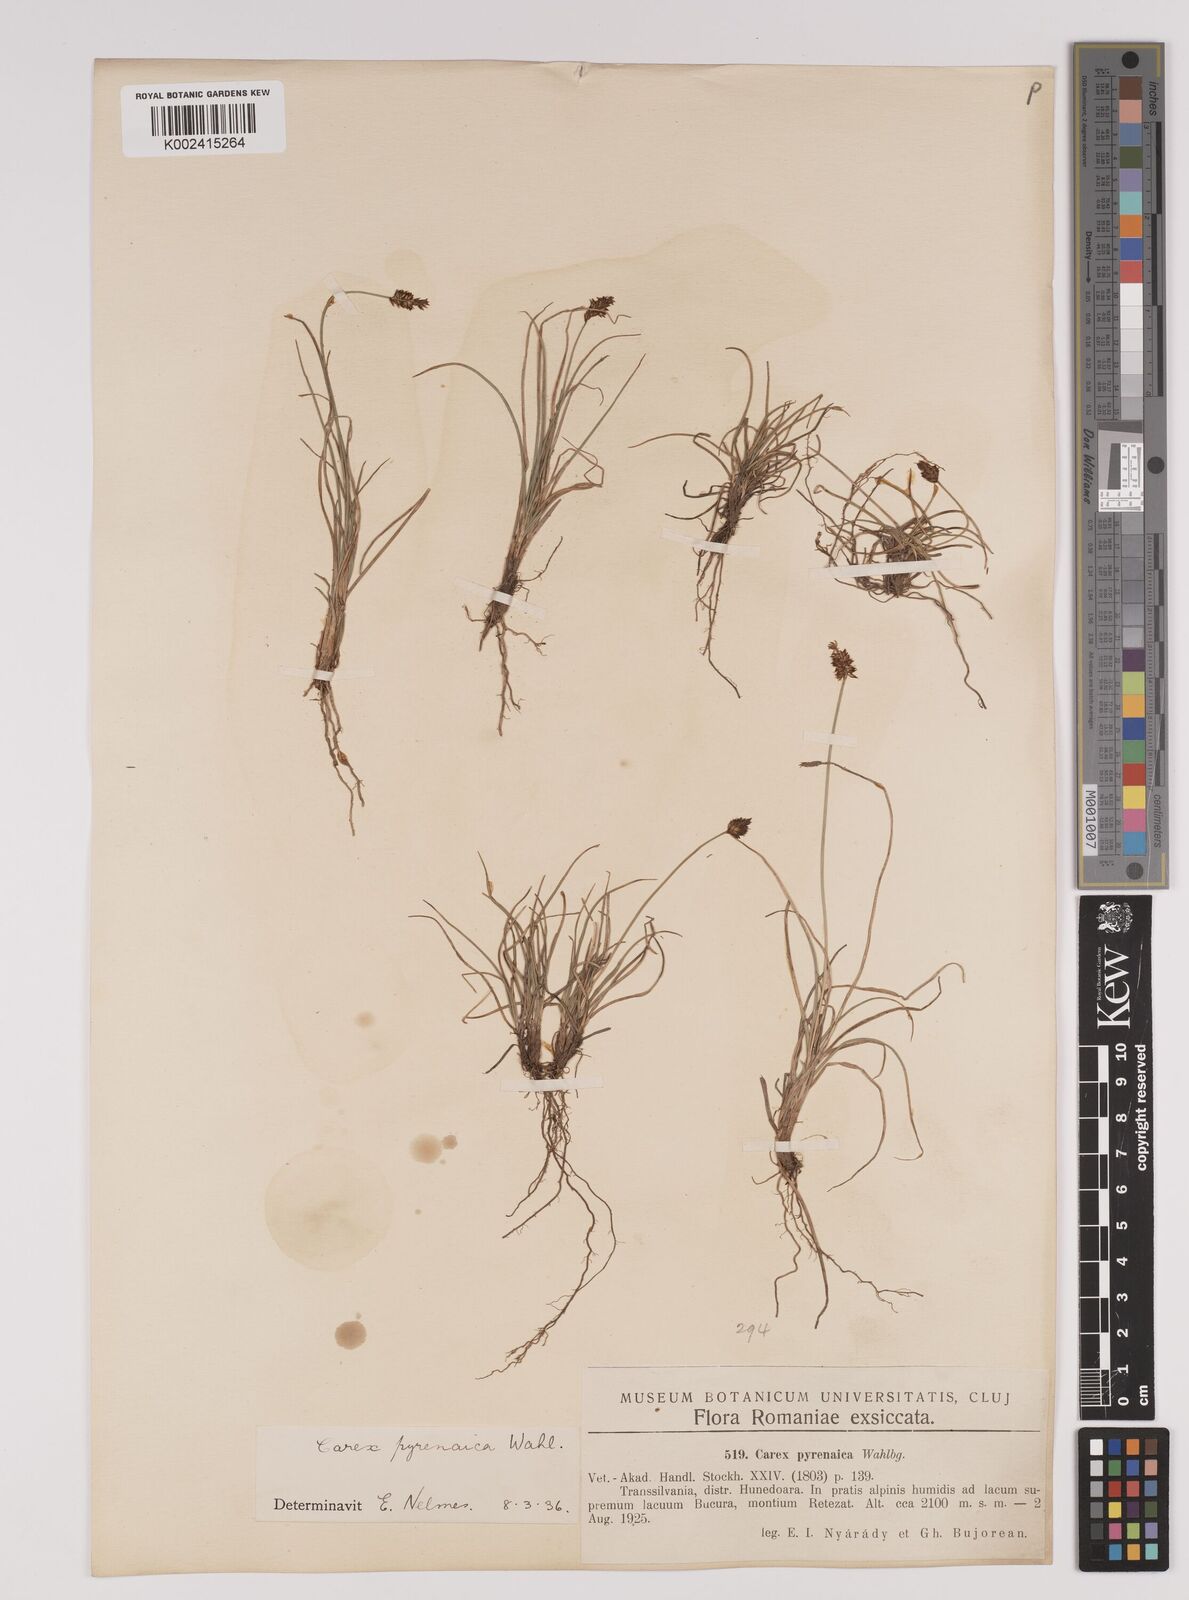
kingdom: Plantae
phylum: Tracheophyta
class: Liliopsida
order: Poales
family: Cyperaceae
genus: Carex
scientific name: Carex pyrenaica
